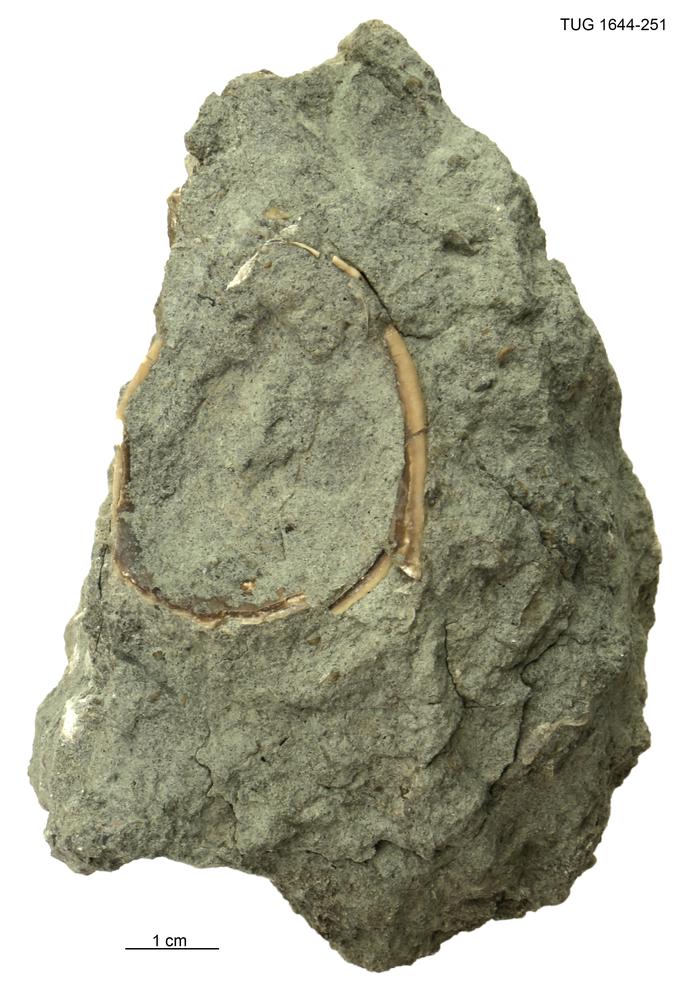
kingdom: Animalia
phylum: Mollusca
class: Monoplacophora
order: Tryblidiida
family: Tryblidiidae
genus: Pilina
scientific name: Pilina
